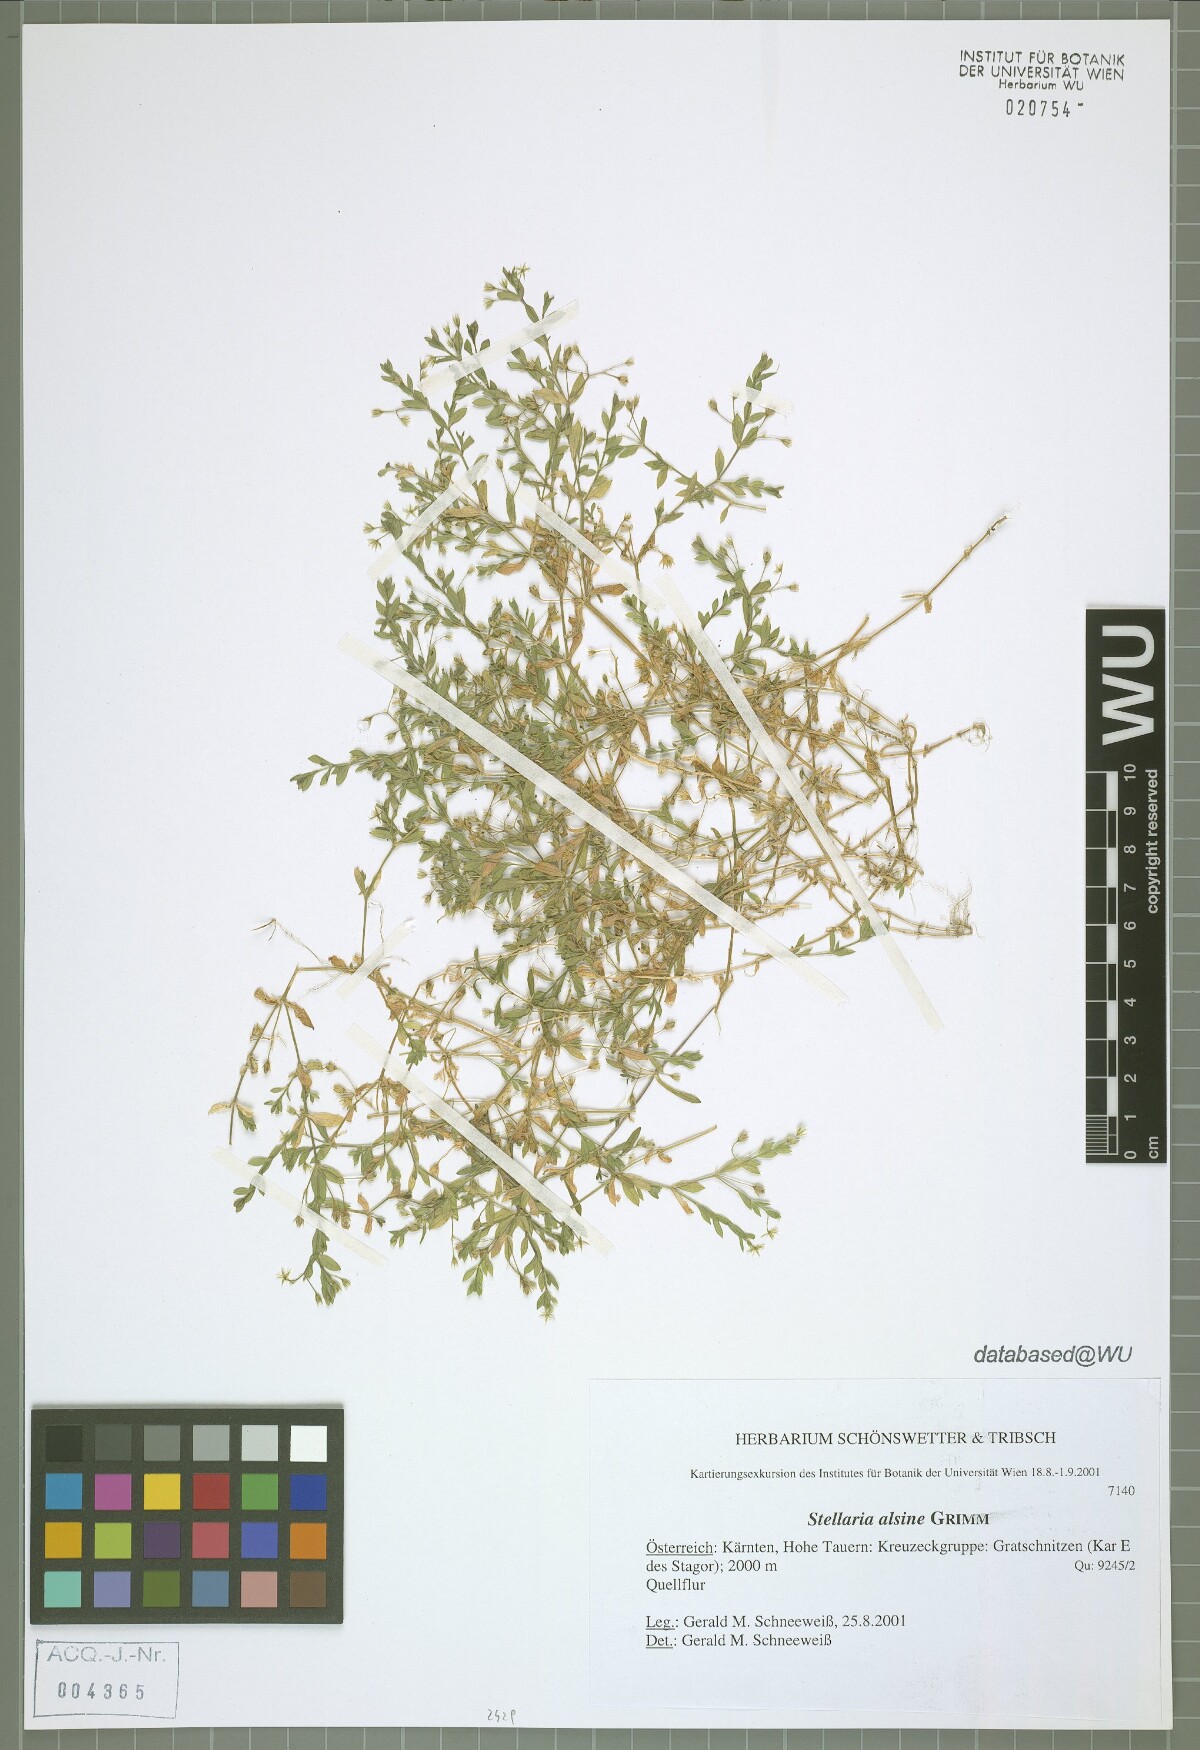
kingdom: Plantae
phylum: Tracheophyta
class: Magnoliopsida
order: Caryophyllales
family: Caryophyllaceae
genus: Stellaria
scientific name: Stellaria alsine
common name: Bog stitchwort
